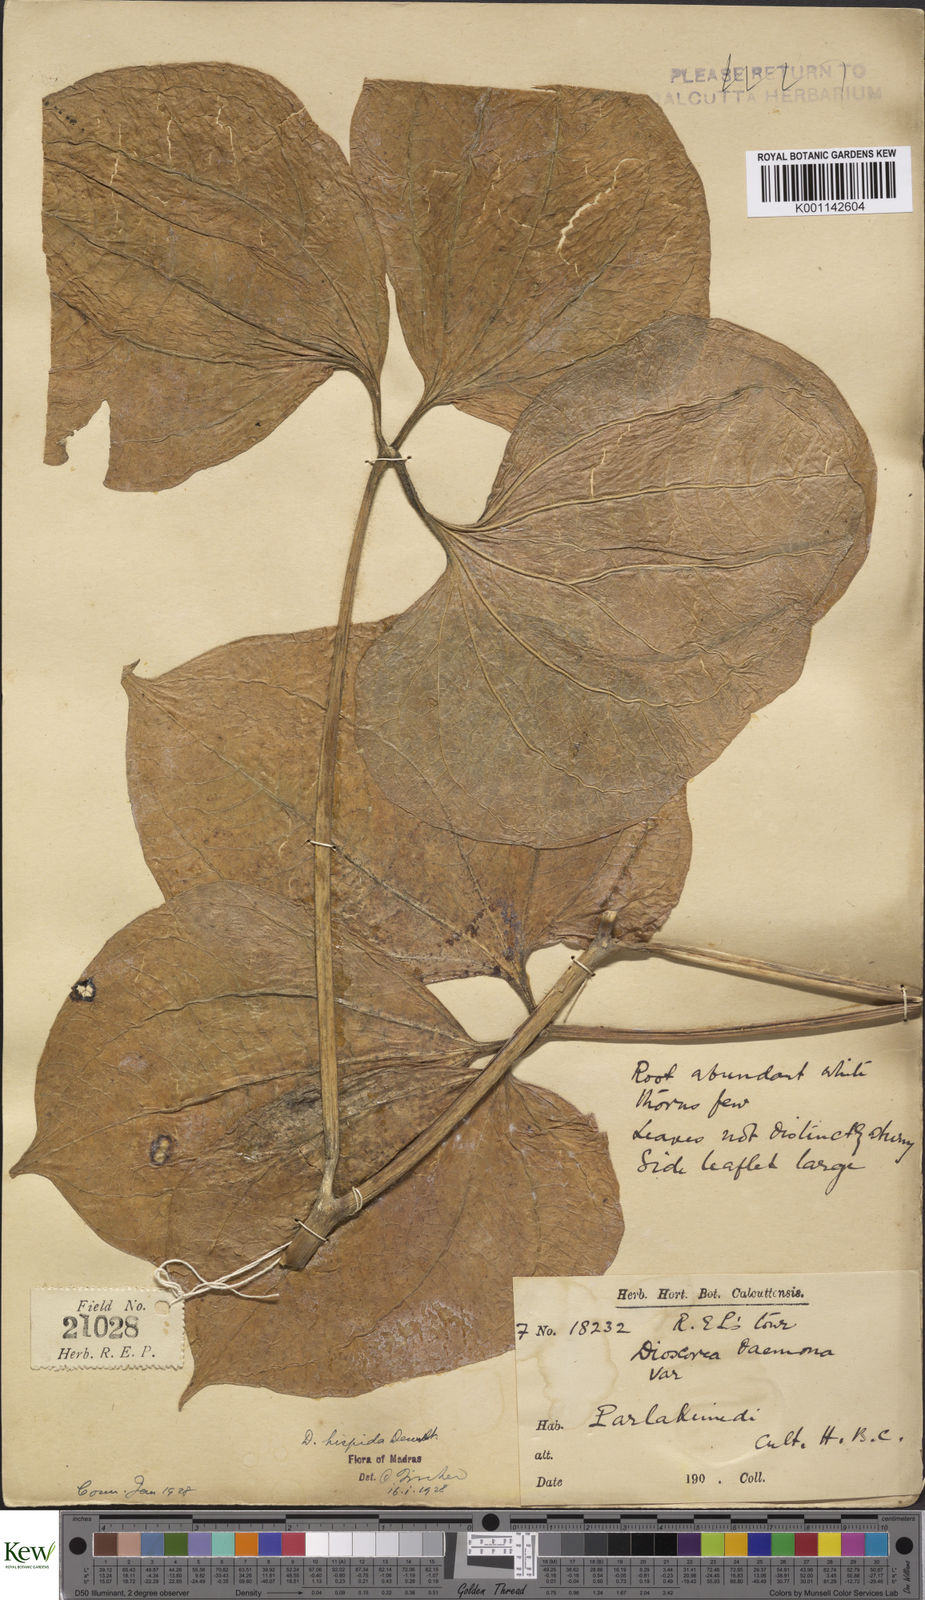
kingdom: Plantae
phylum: Tracheophyta
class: Liliopsida
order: Dioscoreales
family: Dioscoreaceae
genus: Dioscorea
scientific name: Dioscorea hispida
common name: Asiatic bitter yam
